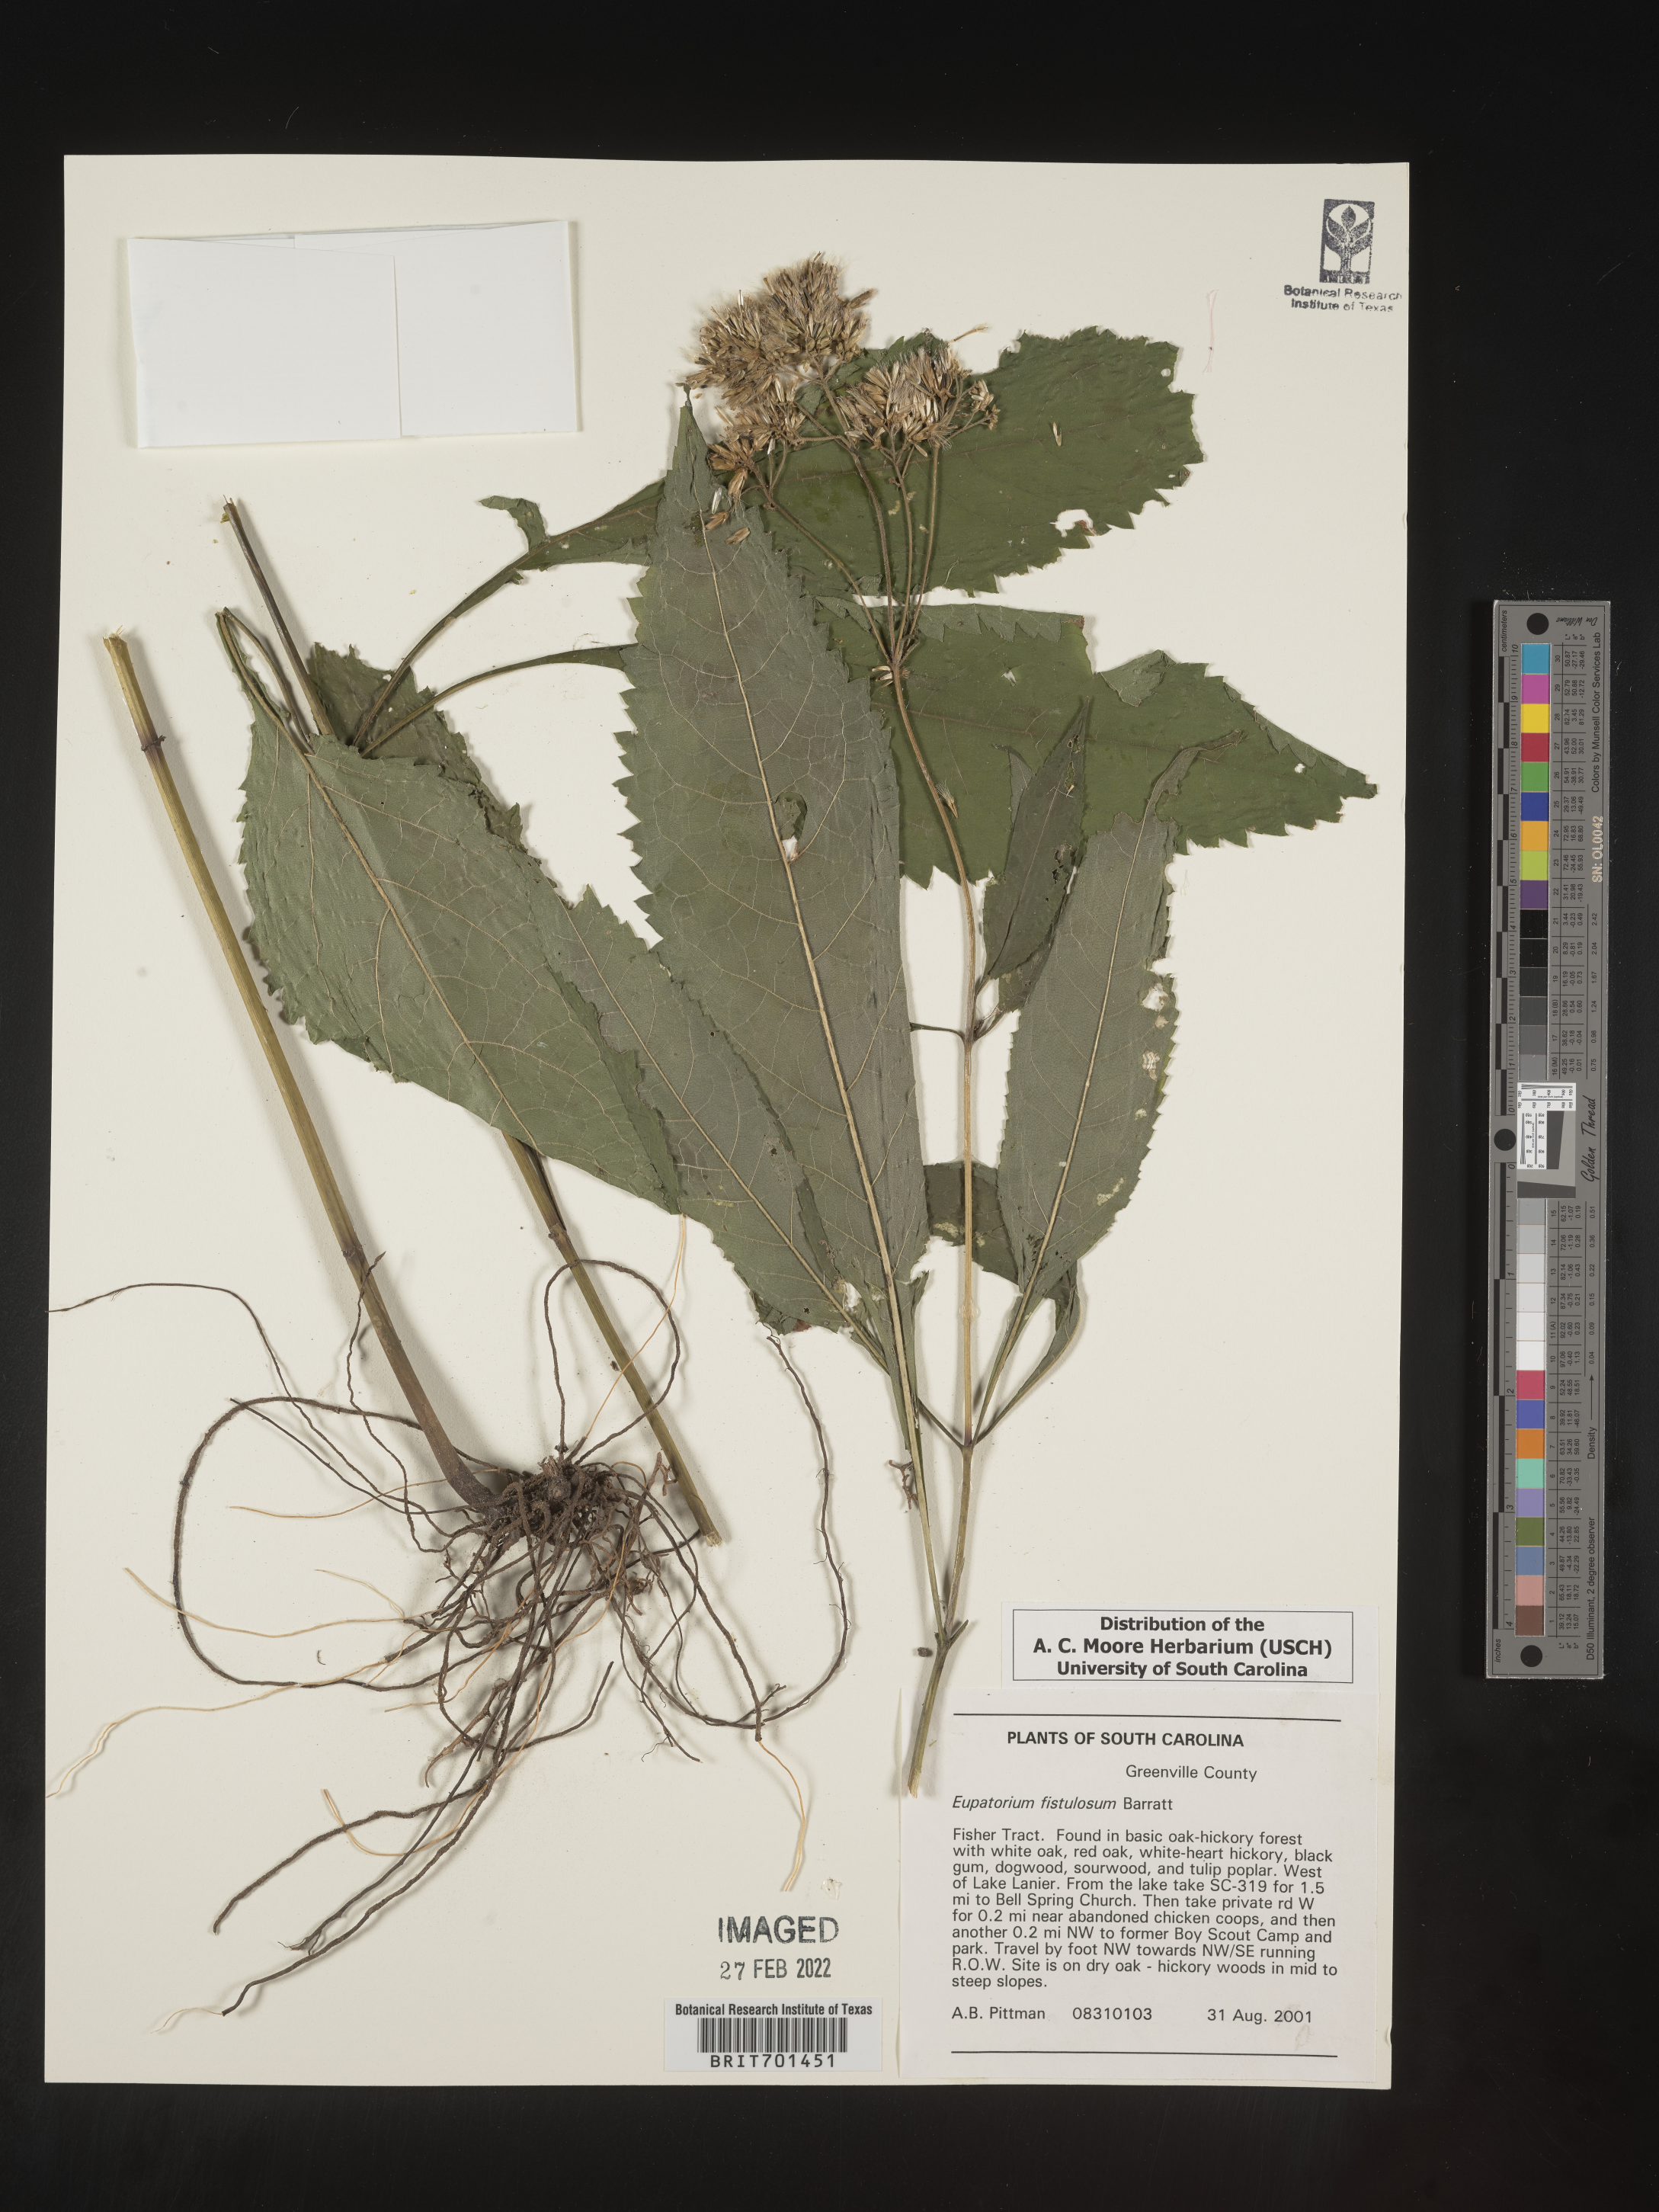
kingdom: Plantae
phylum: Tracheophyta
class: Magnoliopsida
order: Asterales
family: Asteraceae
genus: Eutrochium
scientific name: Eutrochium fistulosum
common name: Trumpetweed
